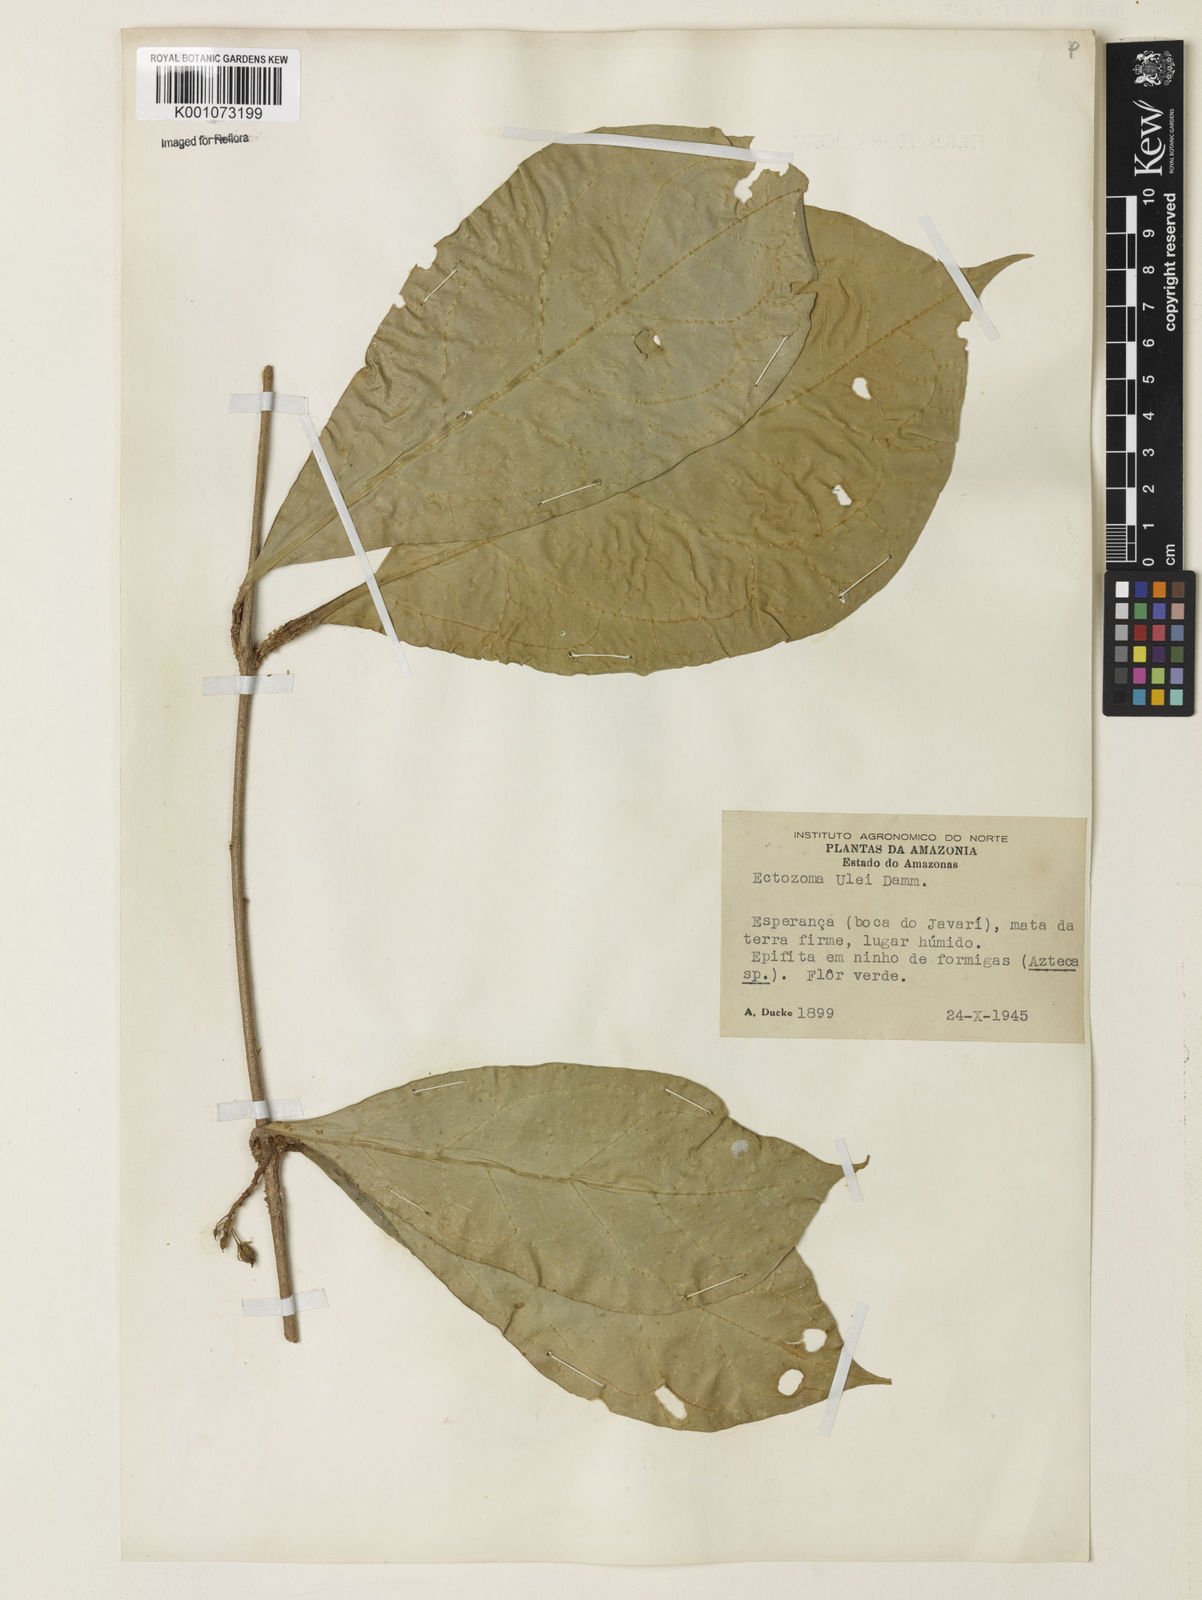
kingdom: Plantae
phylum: Tracheophyta
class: Magnoliopsida
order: Solanales
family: Solanaceae
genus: Juanulloa
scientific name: Juanulloa
